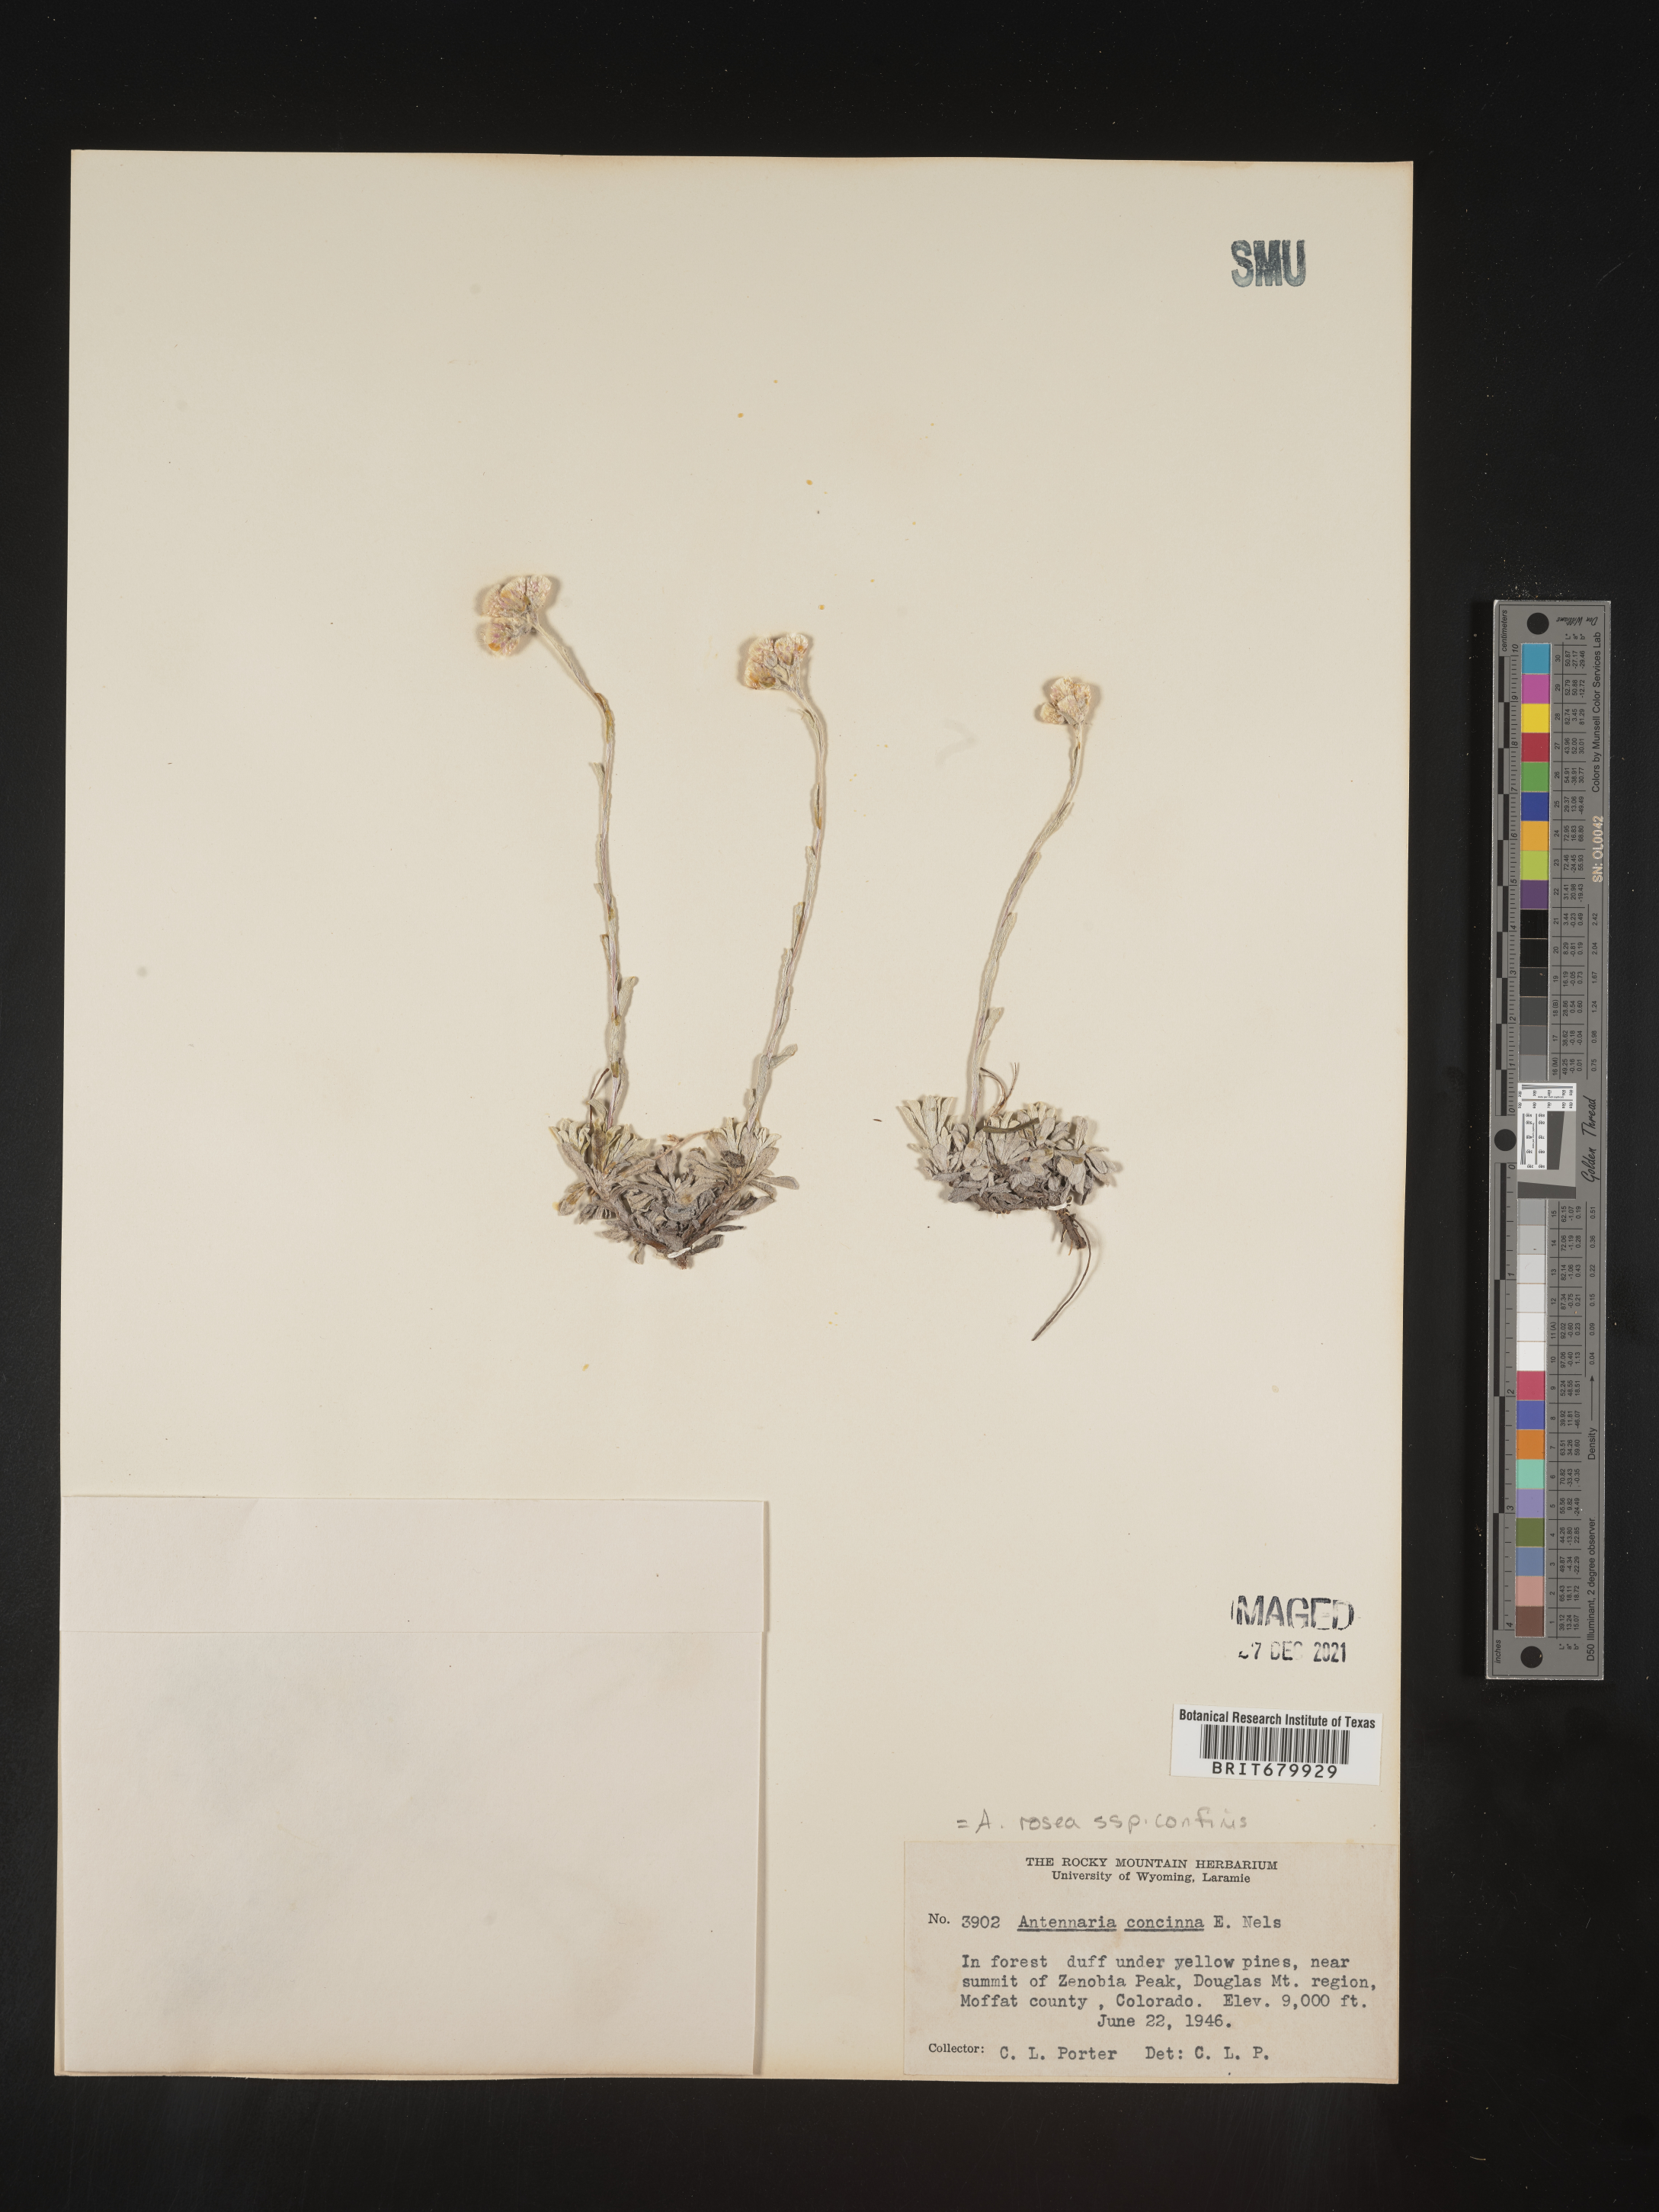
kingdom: Plantae
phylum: Tracheophyta
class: Magnoliopsida
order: Asterales
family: Asteraceae
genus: Antennaria
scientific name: Antennaria rosea
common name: Rosy pussytoes
